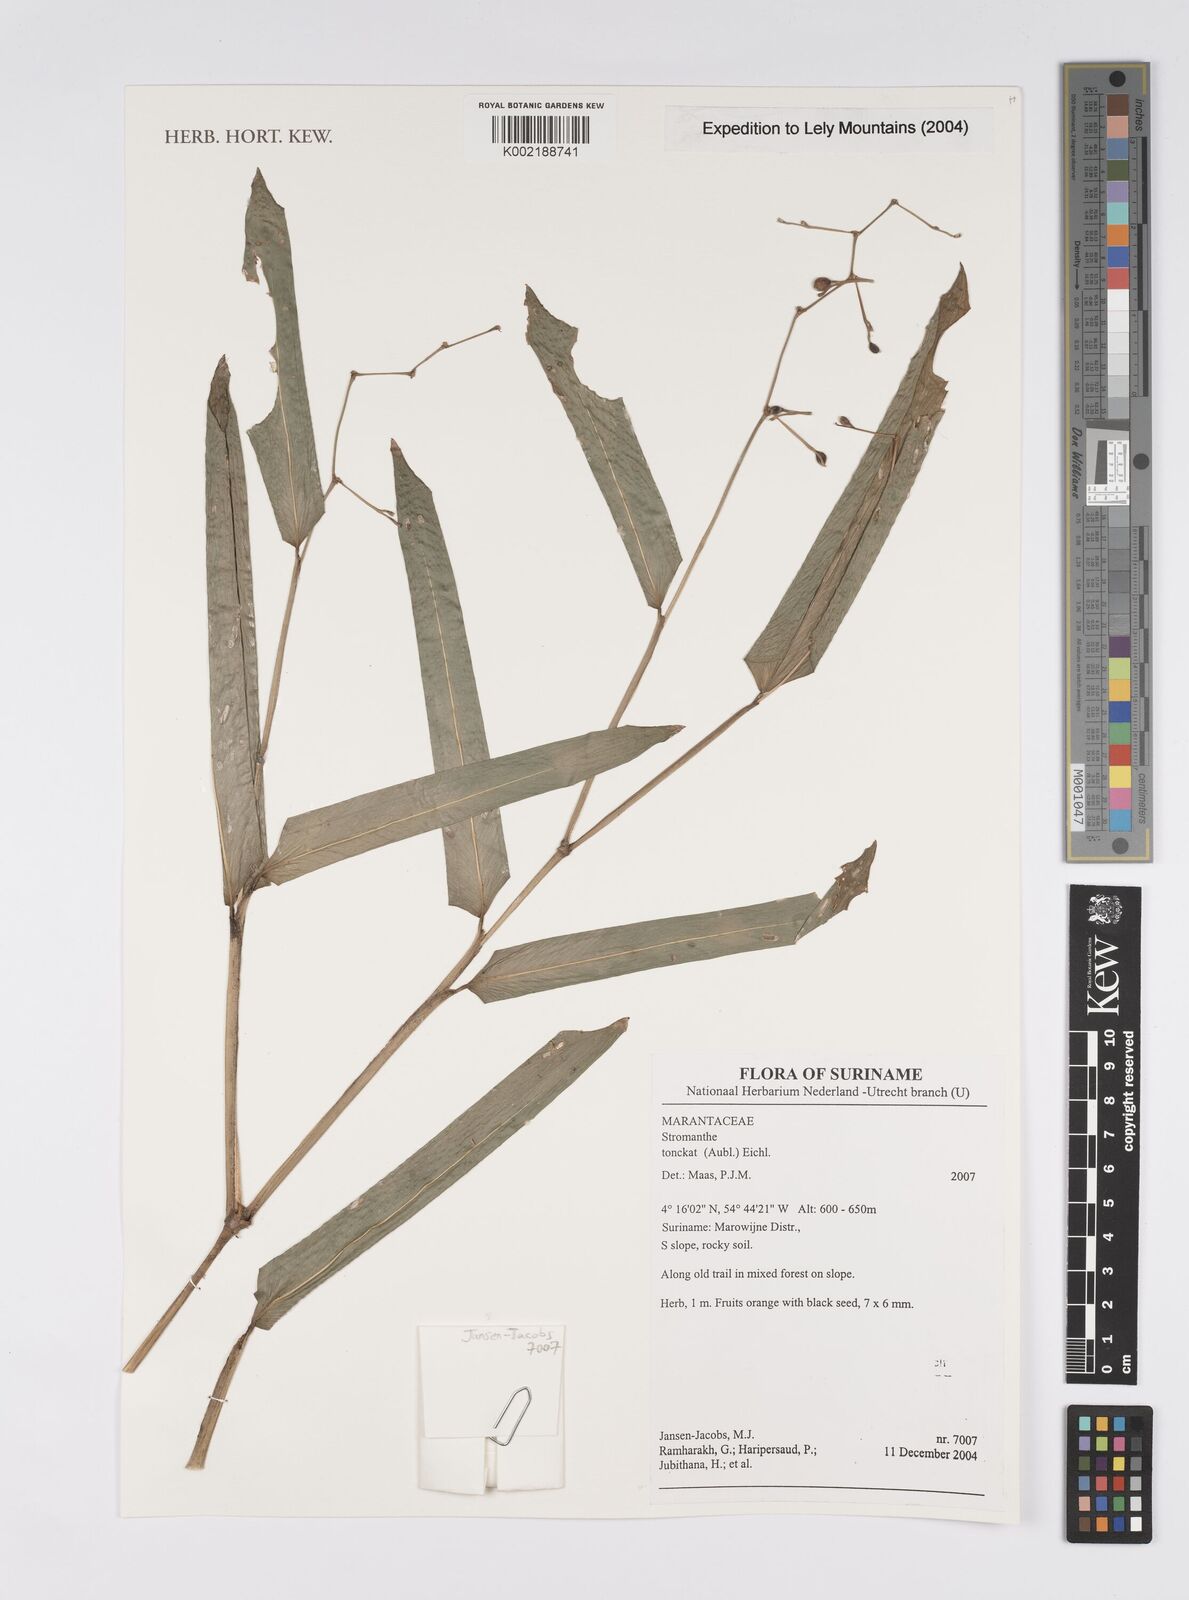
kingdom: Plantae
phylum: Tracheophyta
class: Liliopsida
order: Zingiberales
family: Marantaceae
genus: Stromanthe
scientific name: Stromanthe tonckat
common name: Stromanthe
